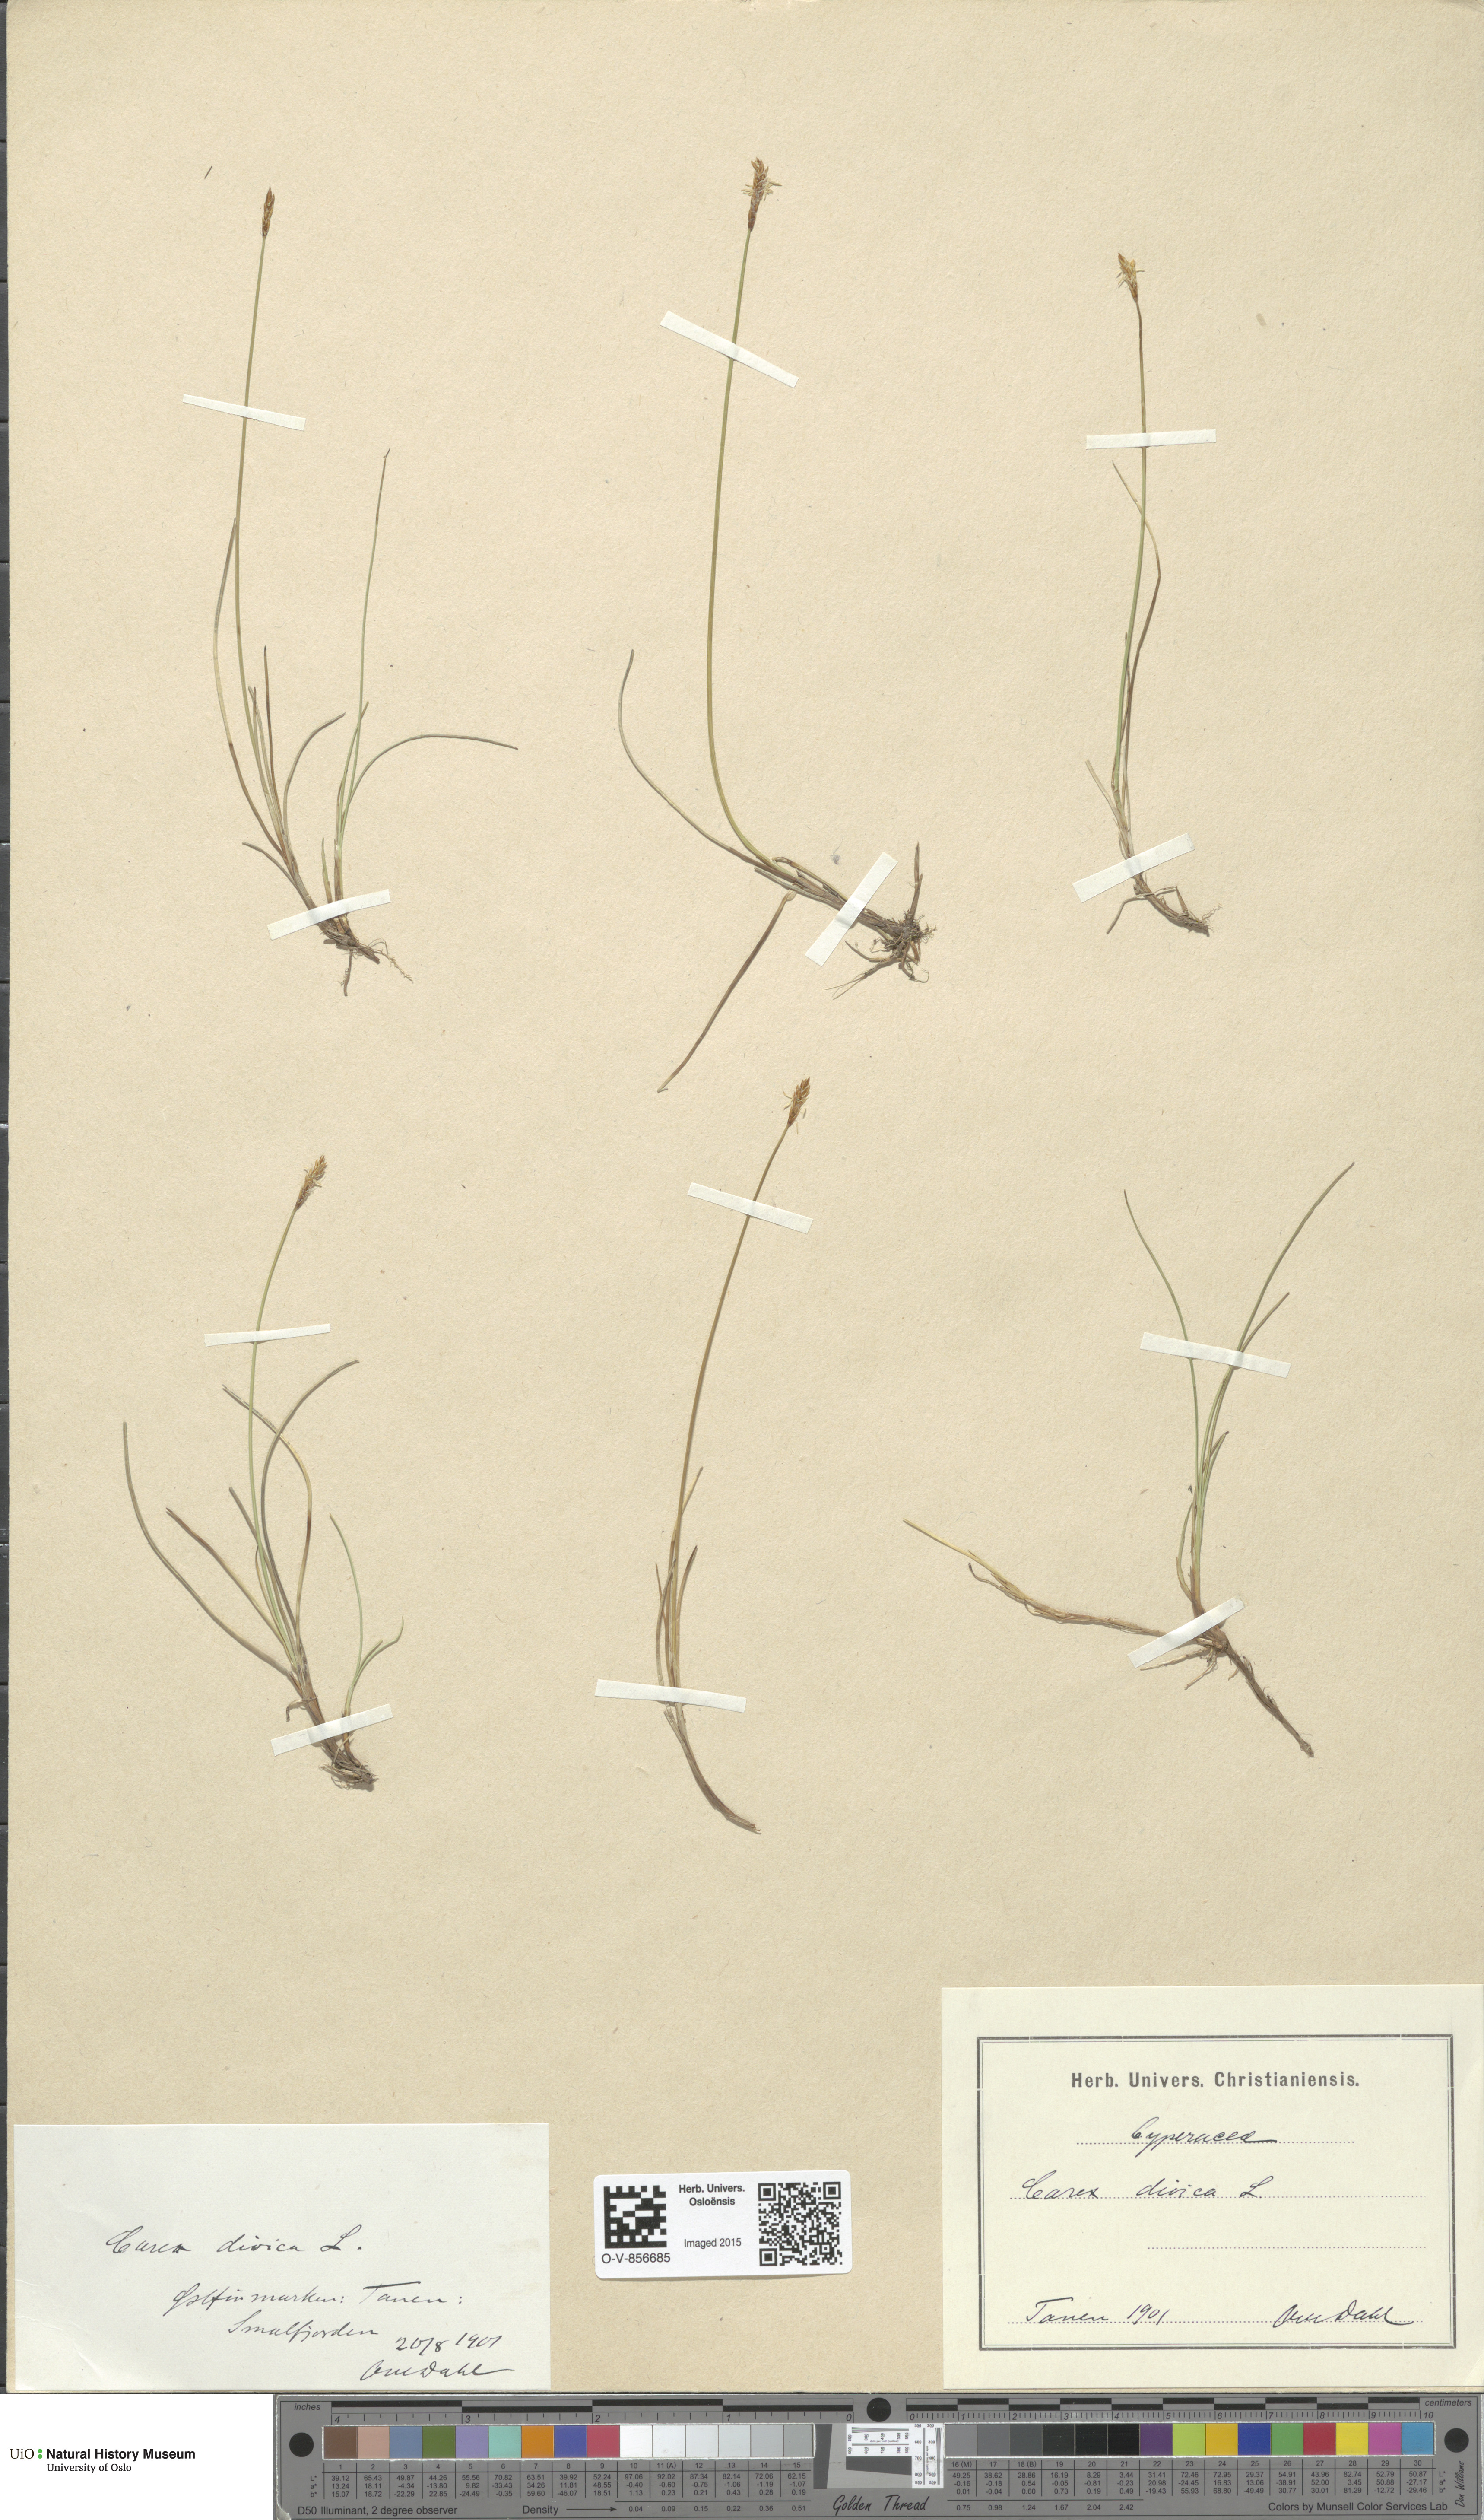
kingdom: Plantae
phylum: Tracheophyta
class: Liliopsida
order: Poales
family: Cyperaceae
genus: Carex
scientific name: Carex dioica
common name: Dioecious sedge
